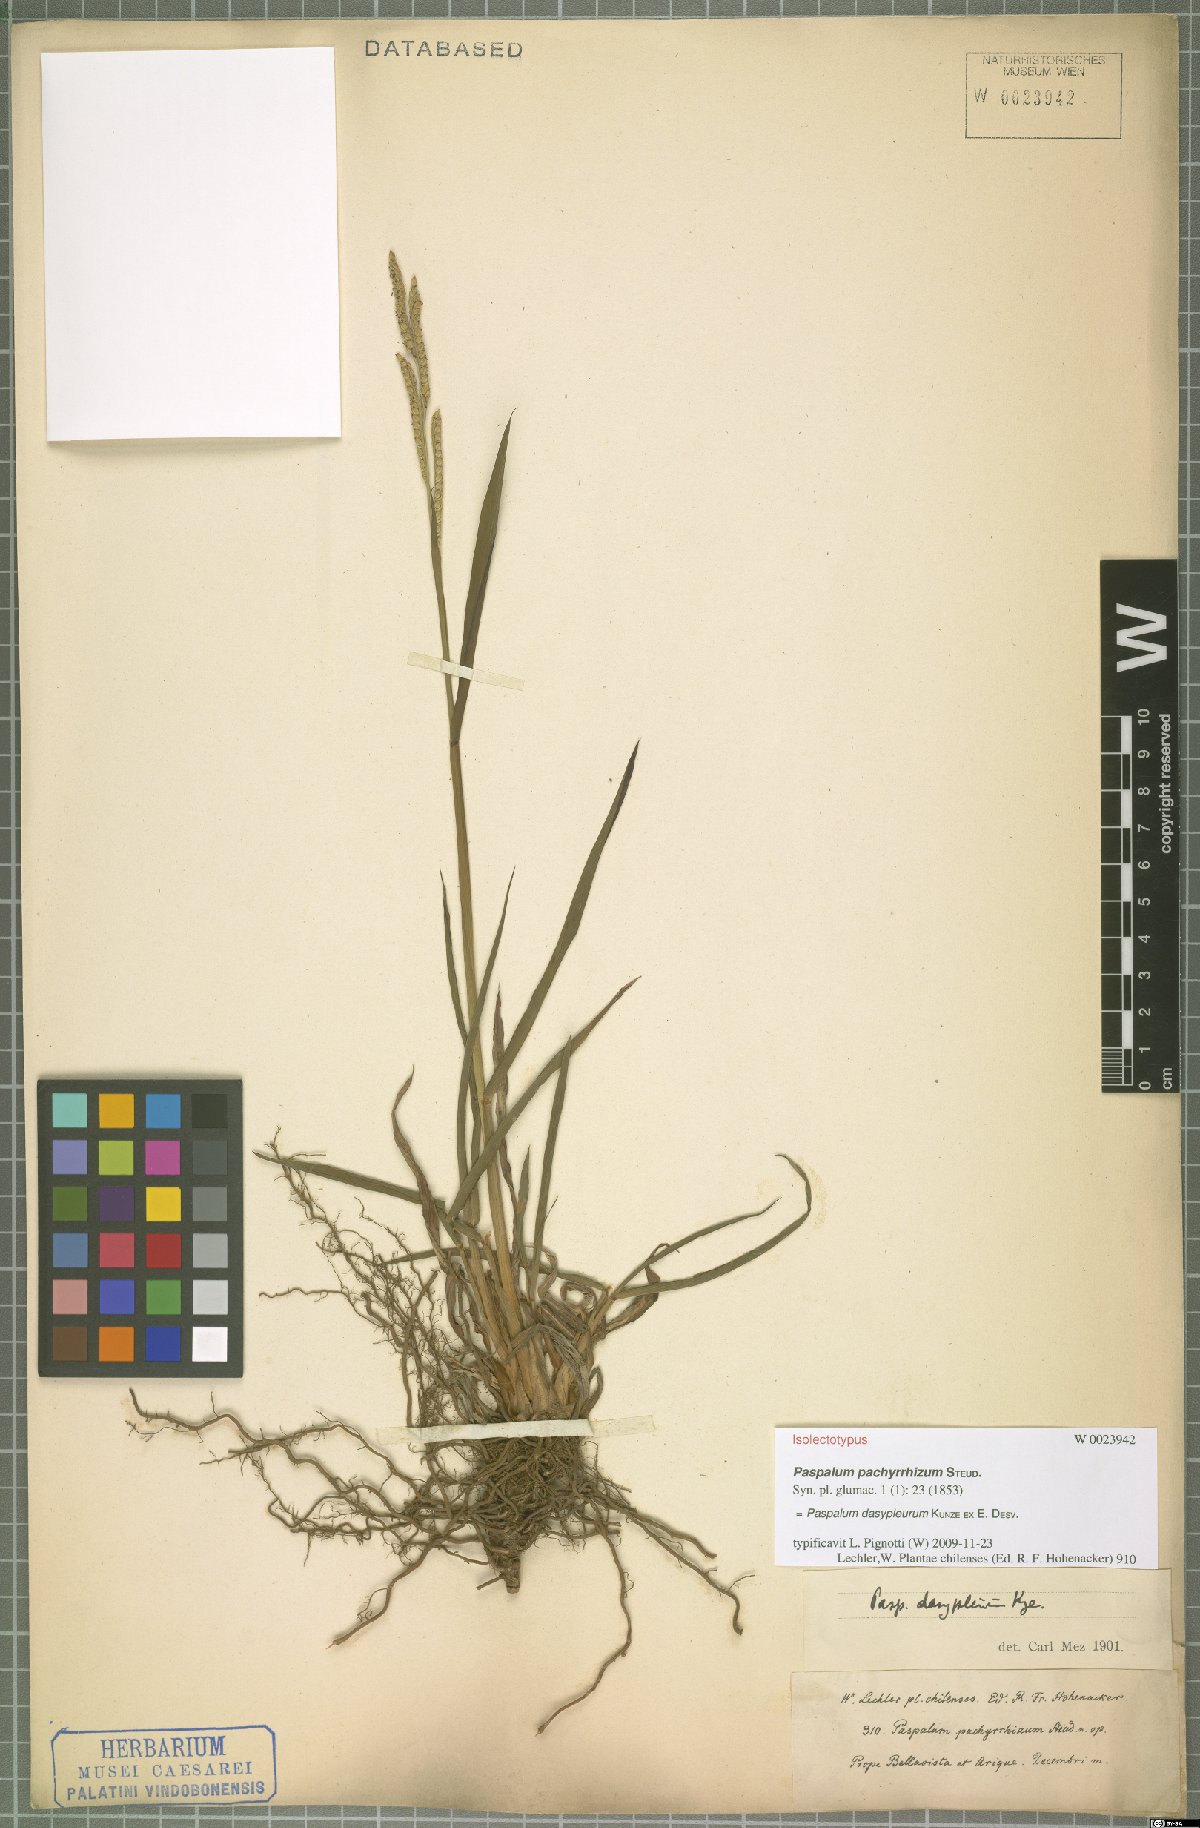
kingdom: Plantae
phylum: Tracheophyta
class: Liliopsida
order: Poales
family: Poaceae
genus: Paspalum
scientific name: Paspalum dasypleurum
